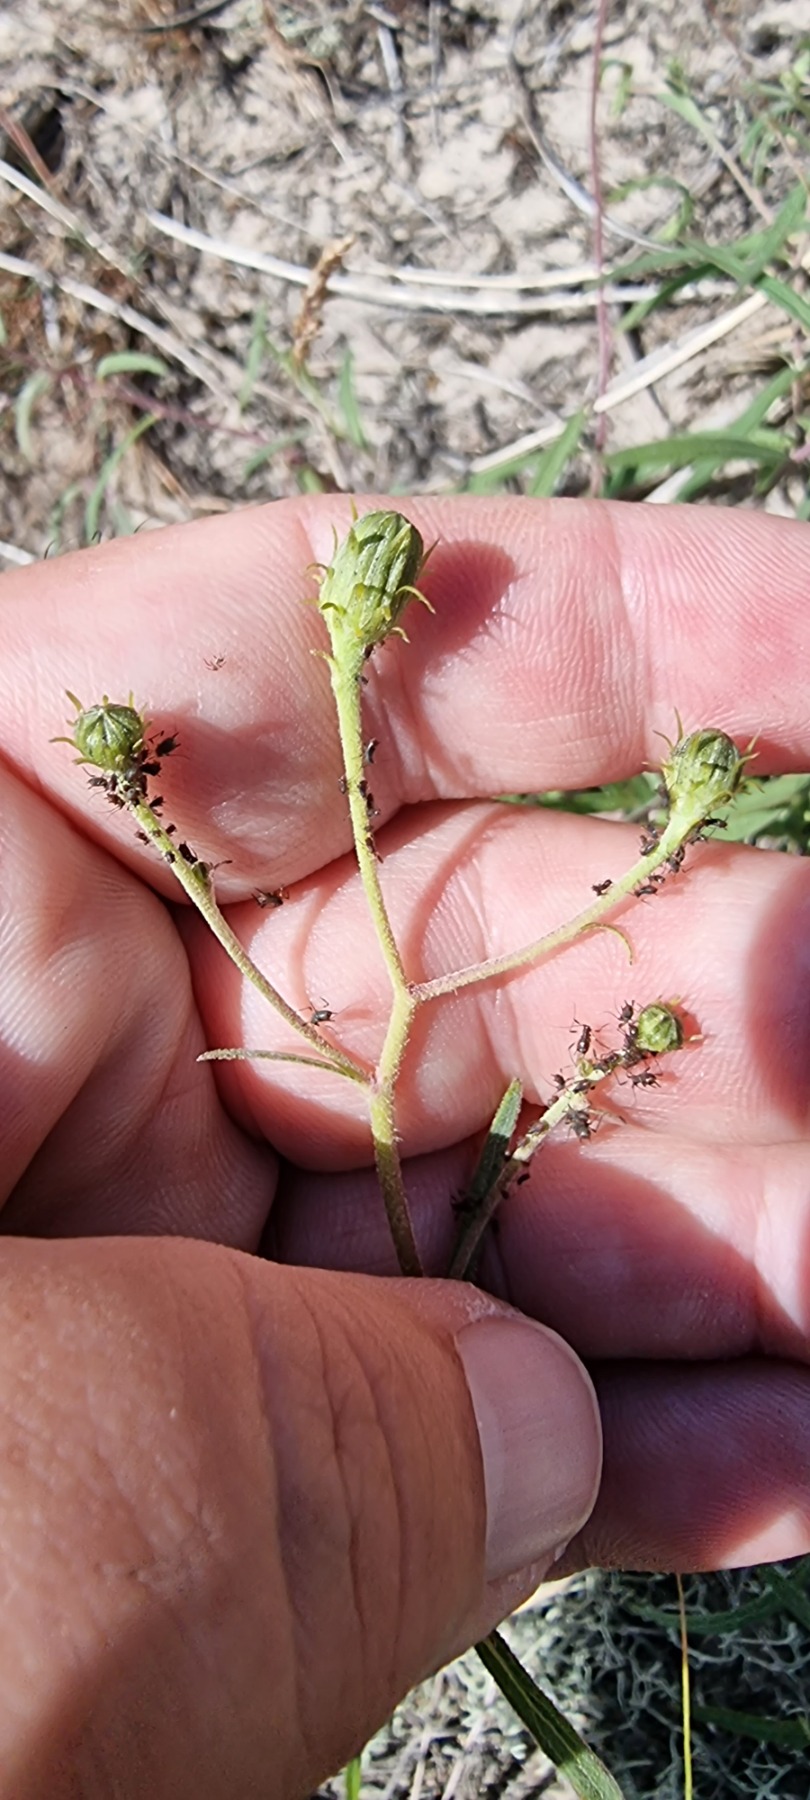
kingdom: Plantae
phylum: Tracheophyta
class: Magnoliopsida
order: Asterales
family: Asteraceae
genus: Hieracium
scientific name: Hieracium umbellatum
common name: Smalbladet høgeurt
